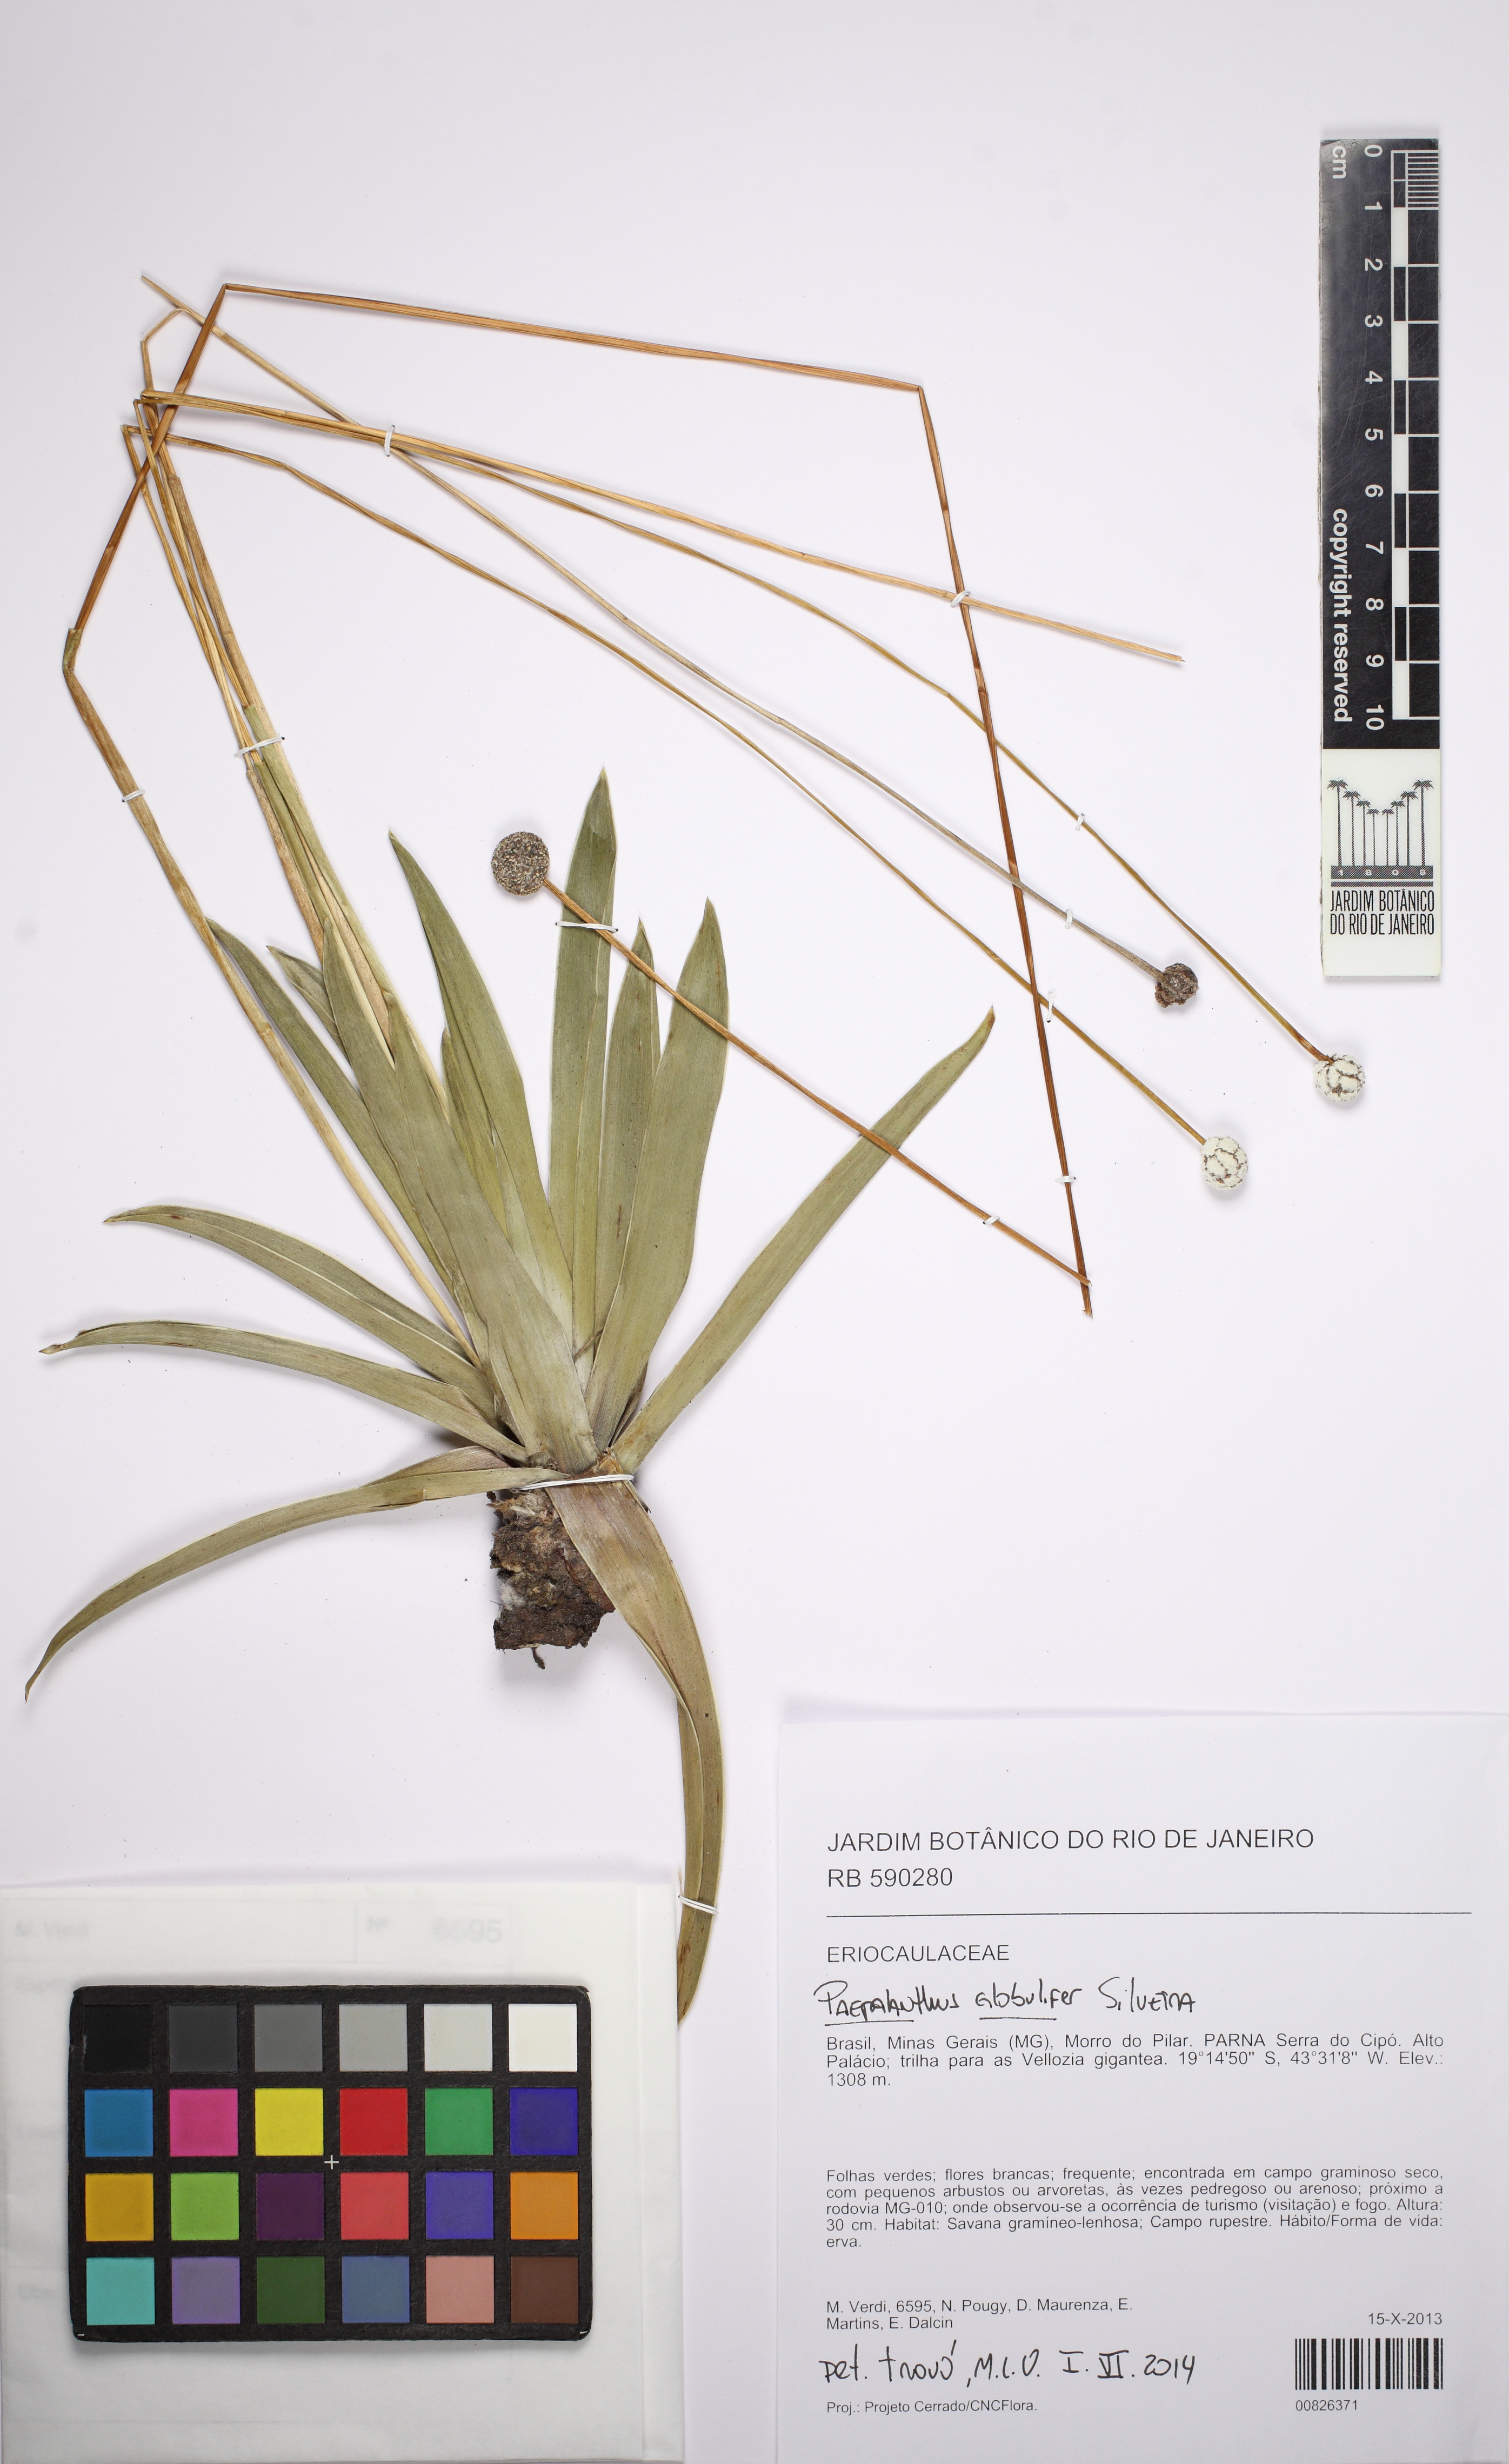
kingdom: Plantae
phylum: Tracheophyta
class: Liliopsida
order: Poales
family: Eriocaulaceae
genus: Paepalanthus
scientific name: Paepalanthus planifolius
